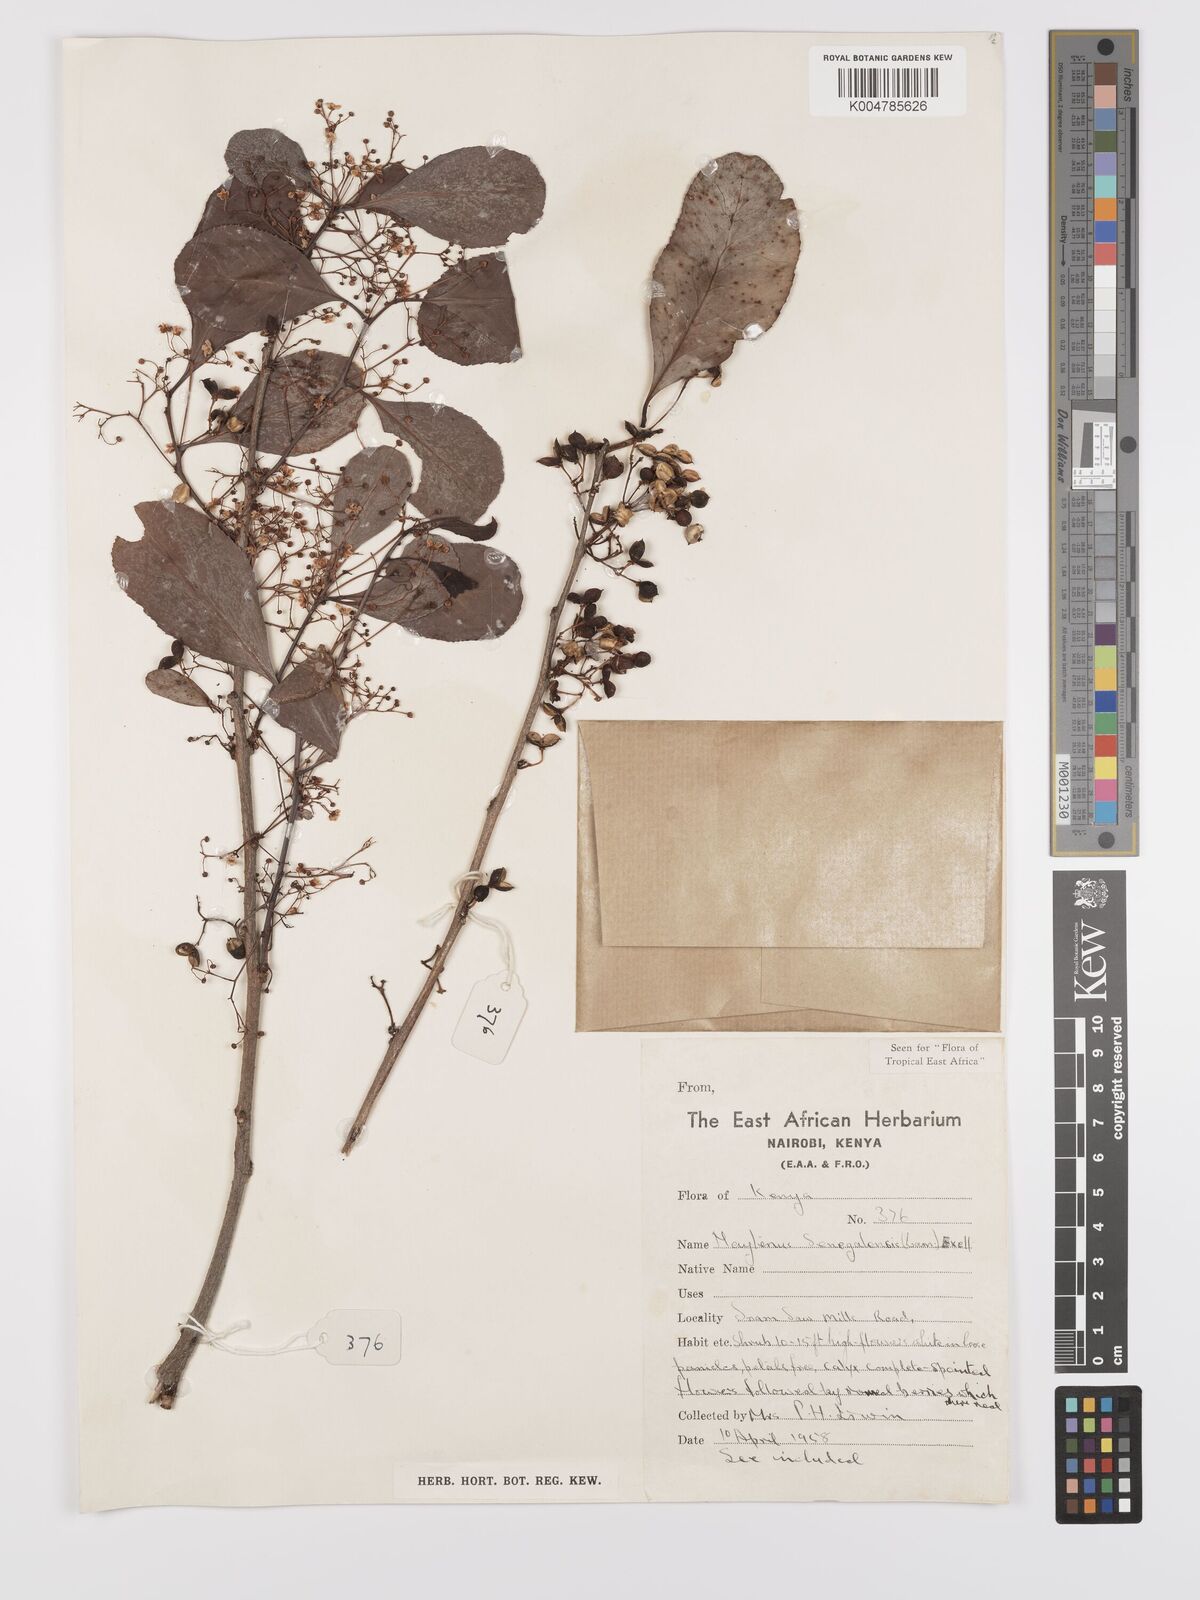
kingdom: Plantae
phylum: Tracheophyta
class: Magnoliopsida
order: Celastrales
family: Celastraceae
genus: Gymnosporia
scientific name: Gymnosporia senegalensis
